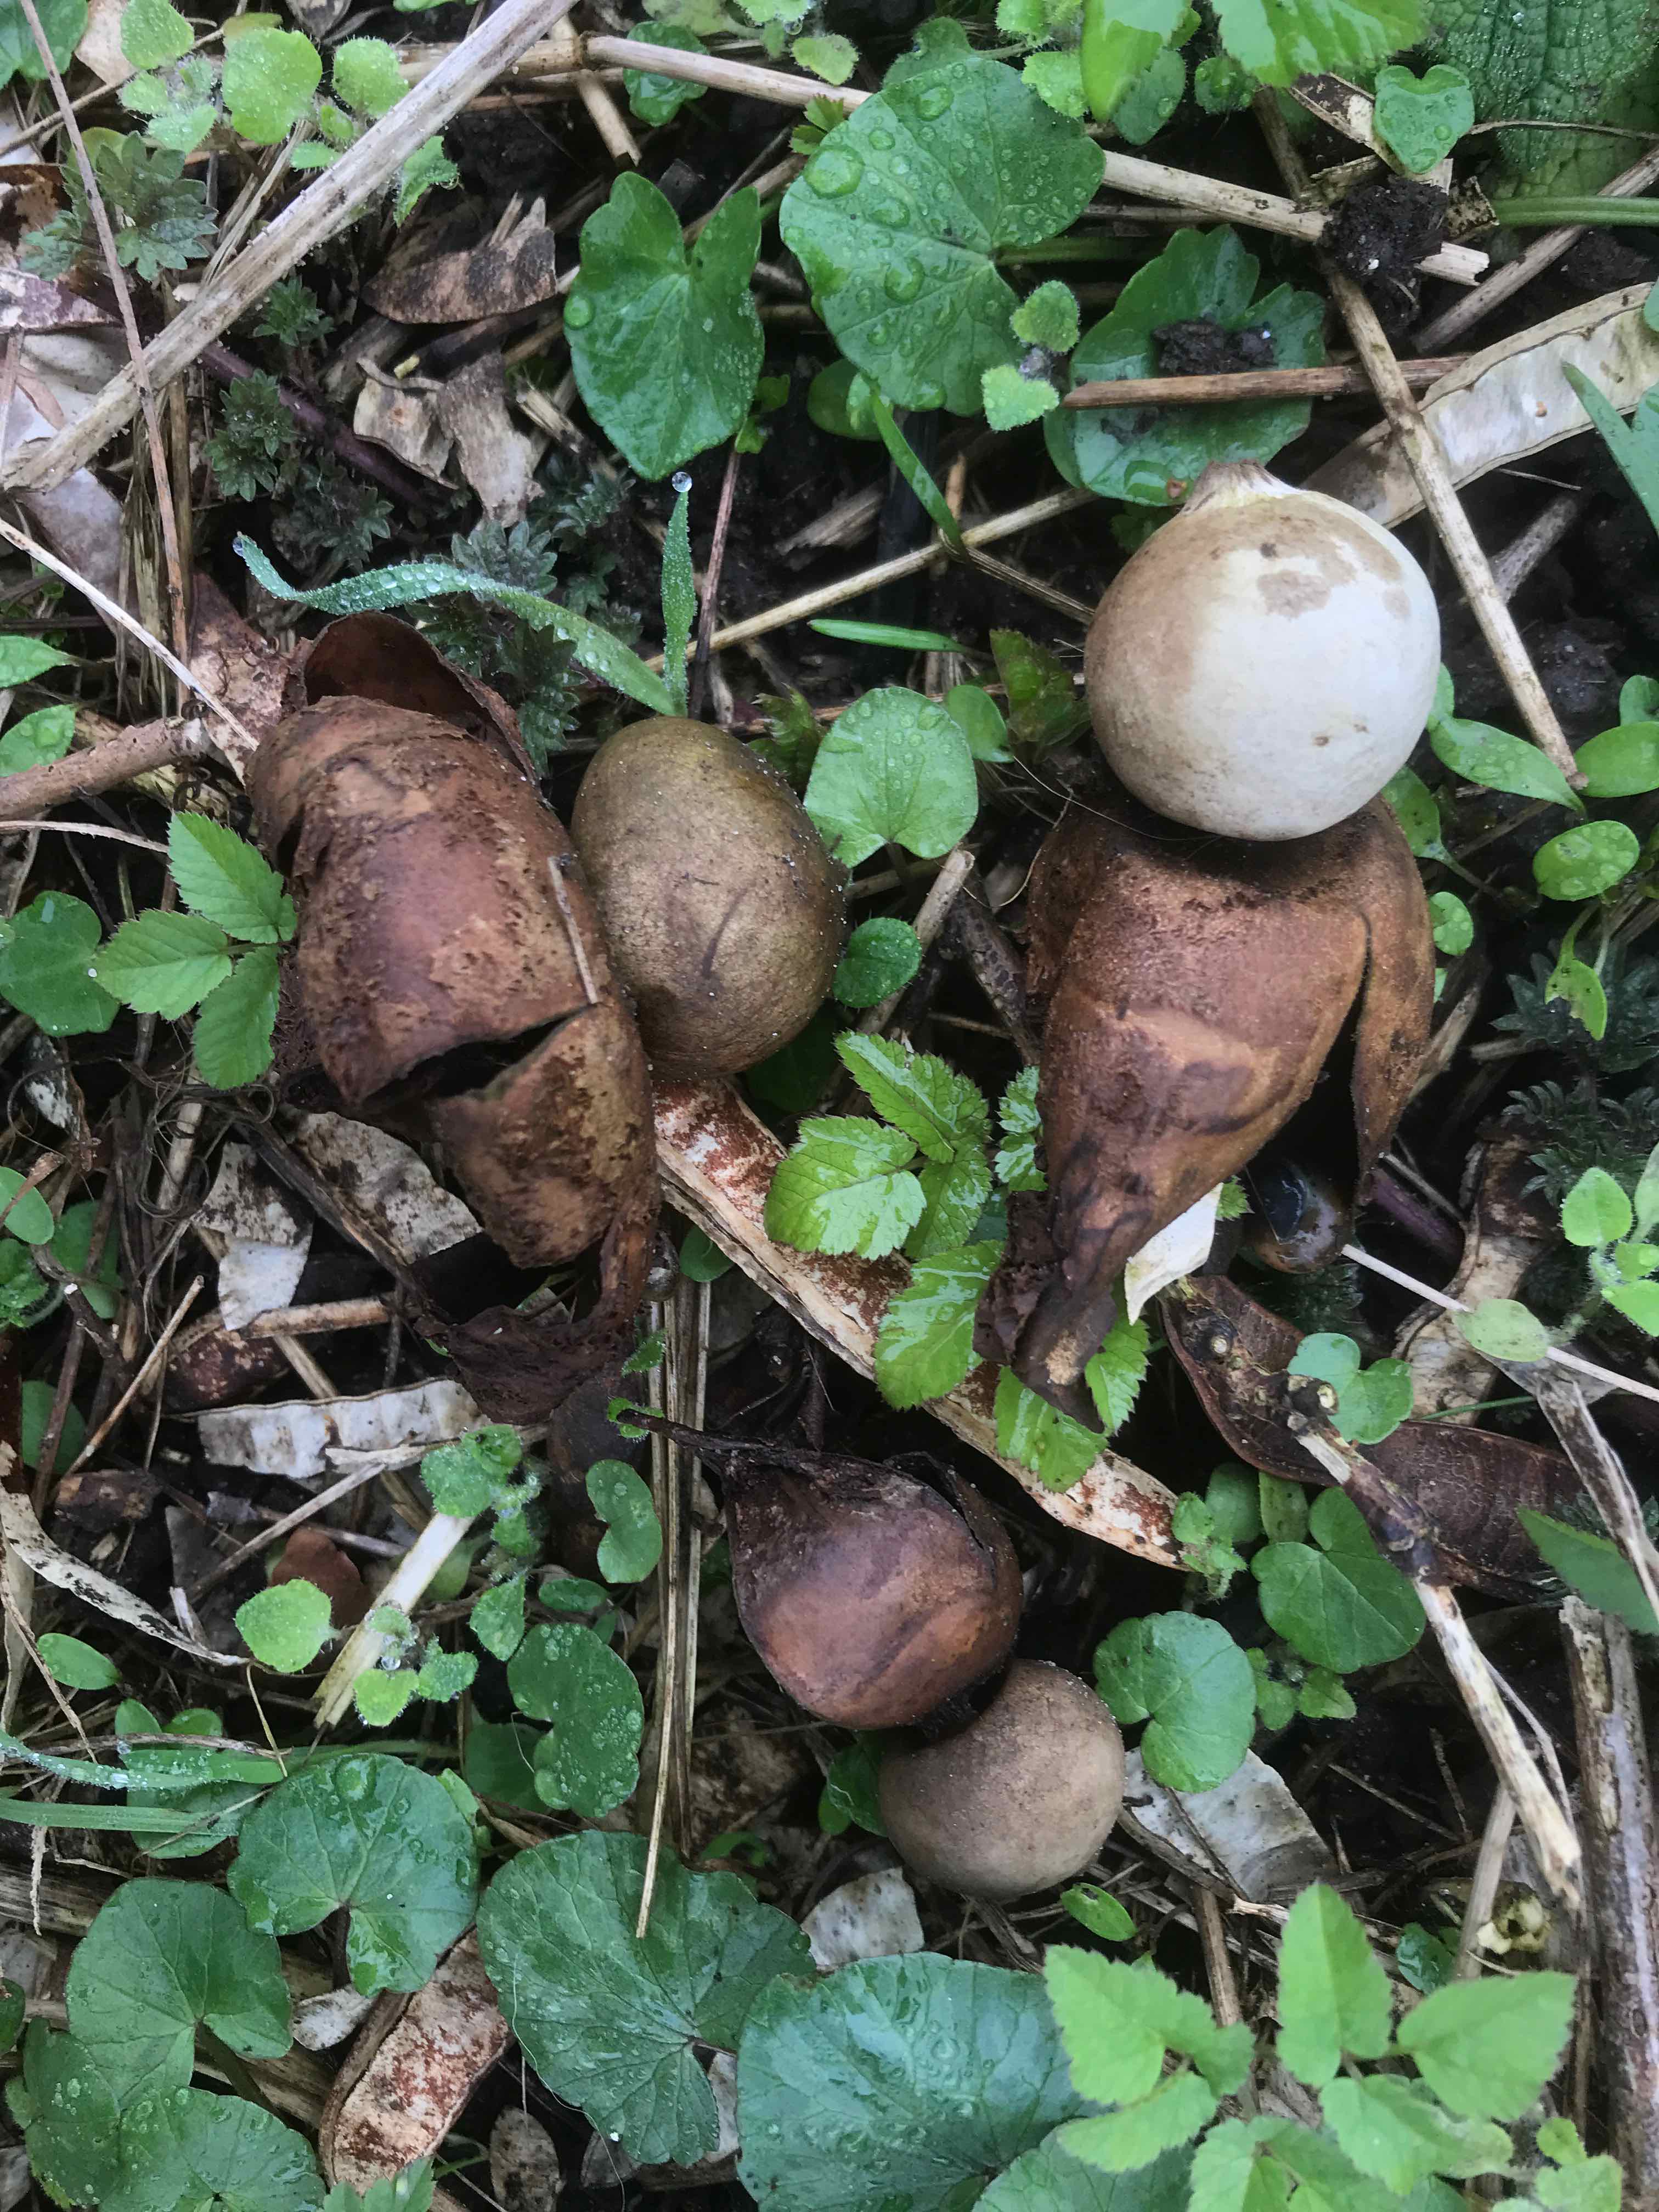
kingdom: Fungi
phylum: Basidiomycota
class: Agaricomycetes
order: Geastrales
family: Geastraceae
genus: Geastrum
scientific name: Geastrum michelianum
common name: kødet stjernebold
